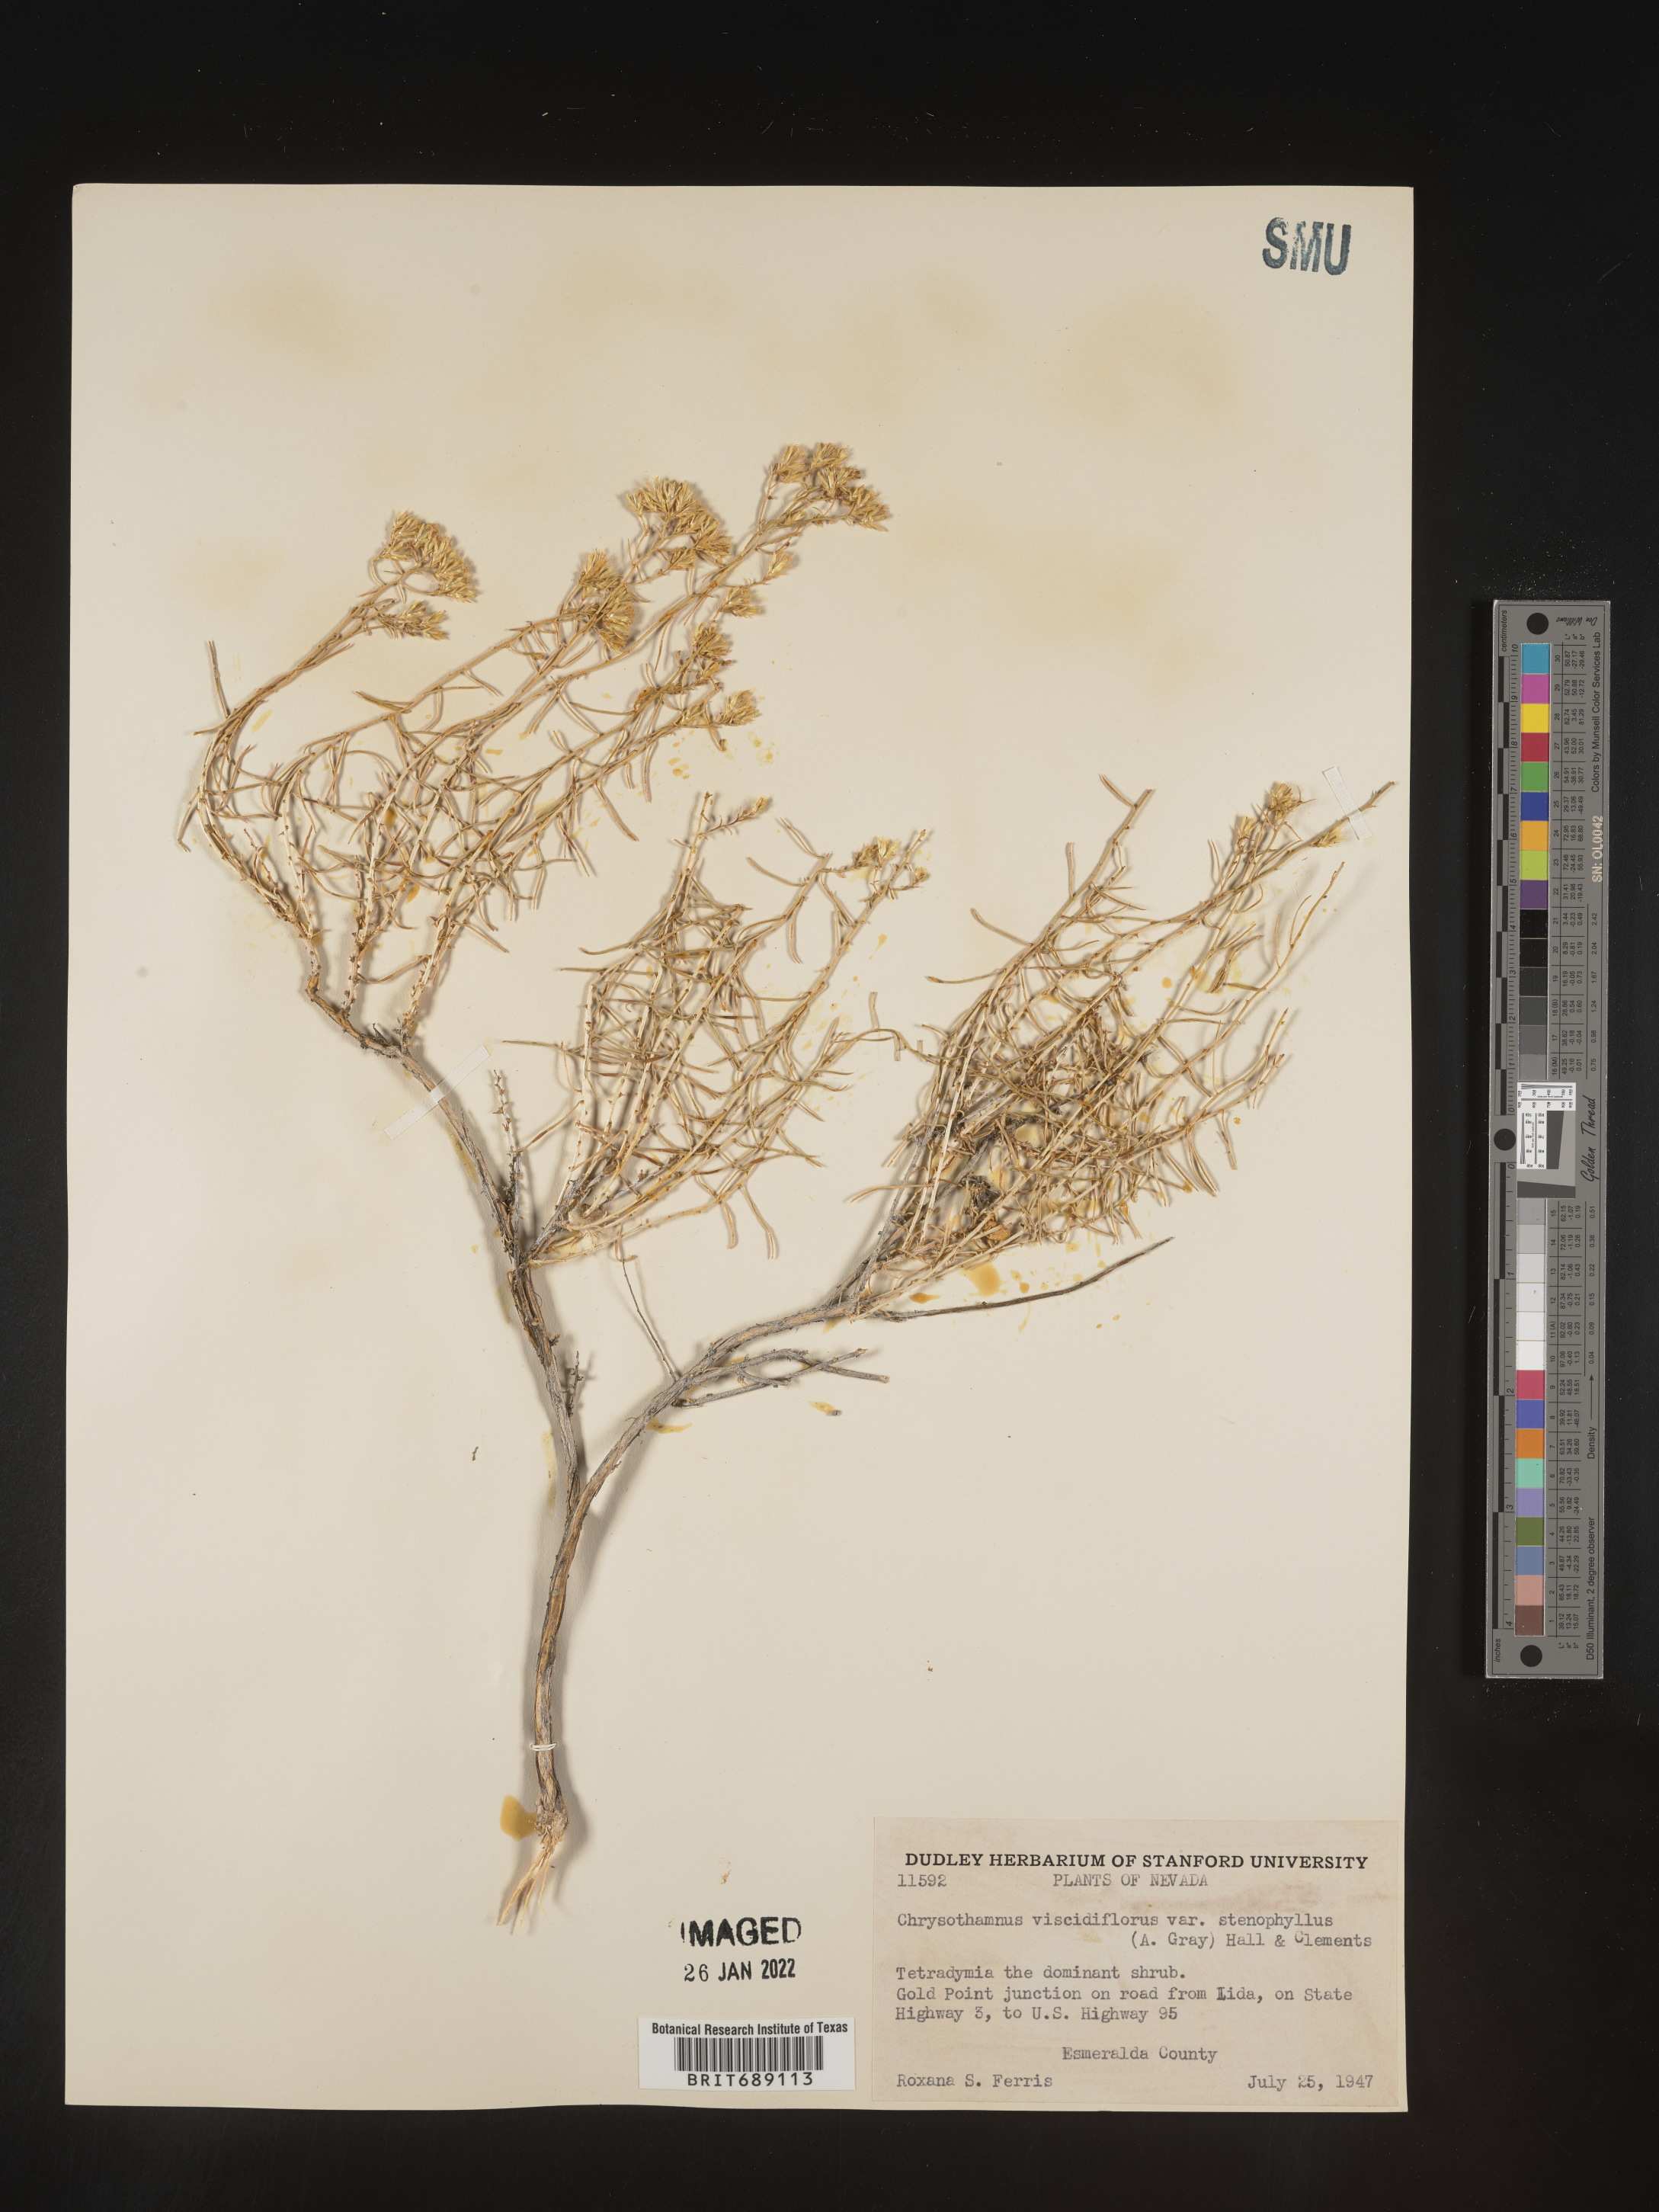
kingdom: Plantae
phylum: Tracheophyta
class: Magnoliopsida
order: Asterales
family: Asteraceae
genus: Chrysothamnus
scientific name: Chrysothamnus viscidiflorus
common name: Yellow rabbitbrush
